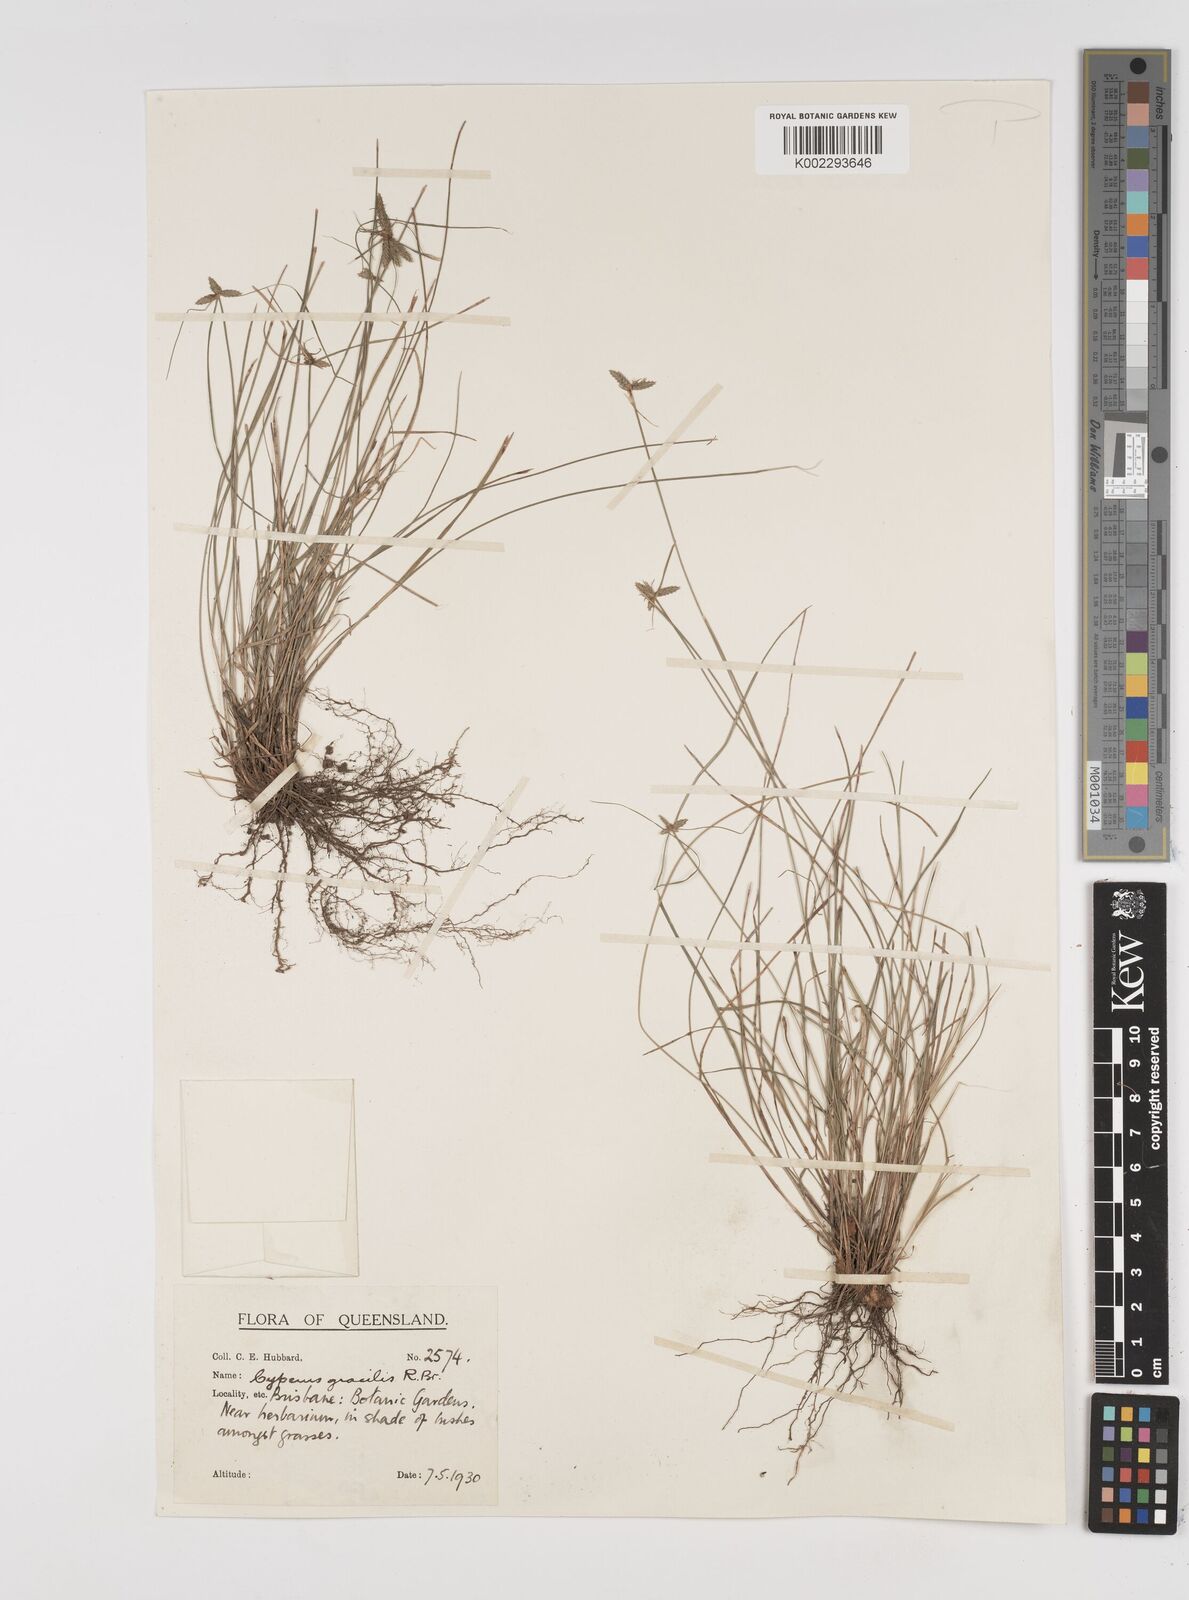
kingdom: Plantae
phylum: Tracheophyta
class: Liliopsida
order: Poales
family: Cyperaceae
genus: Cyperus
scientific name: Cyperus gracilis
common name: Slimjim flatsedge
